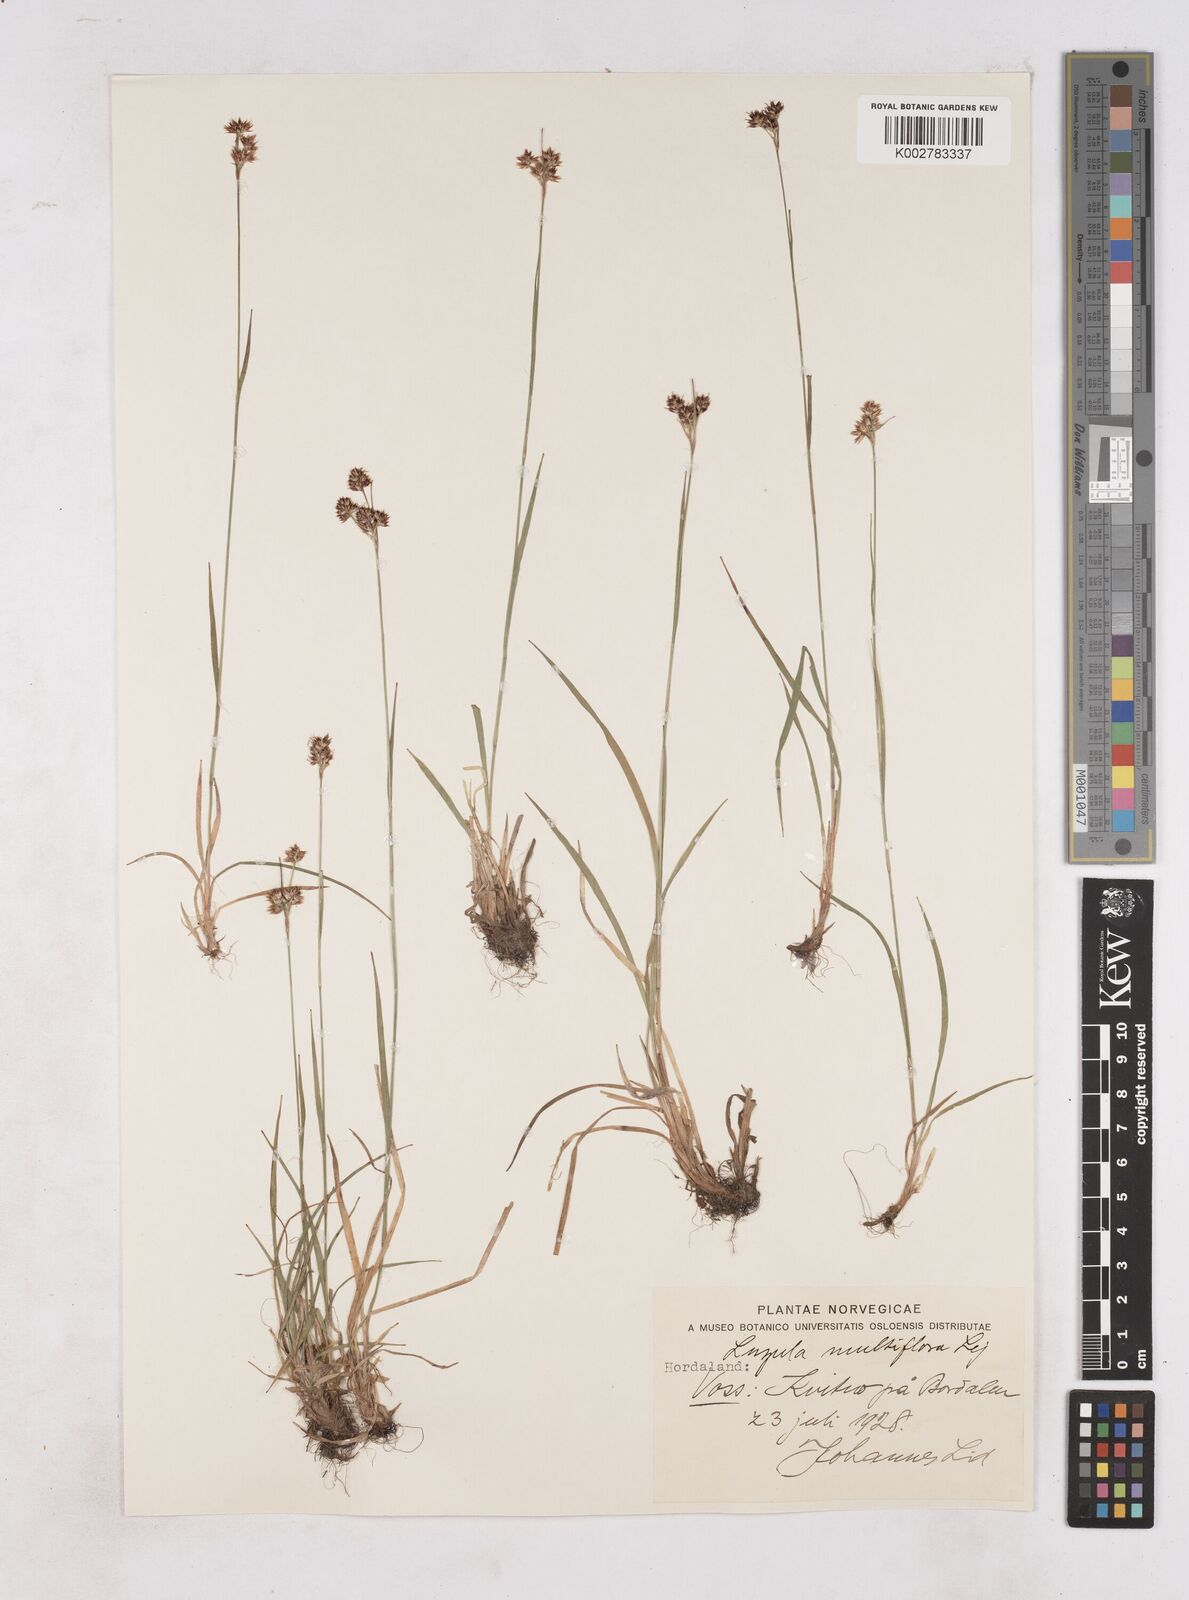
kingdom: Plantae
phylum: Tracheophyta
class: Liliopsida
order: Poales
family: Juncaceae
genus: Luzula
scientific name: Luzula multiflora
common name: Heath wood-rush
